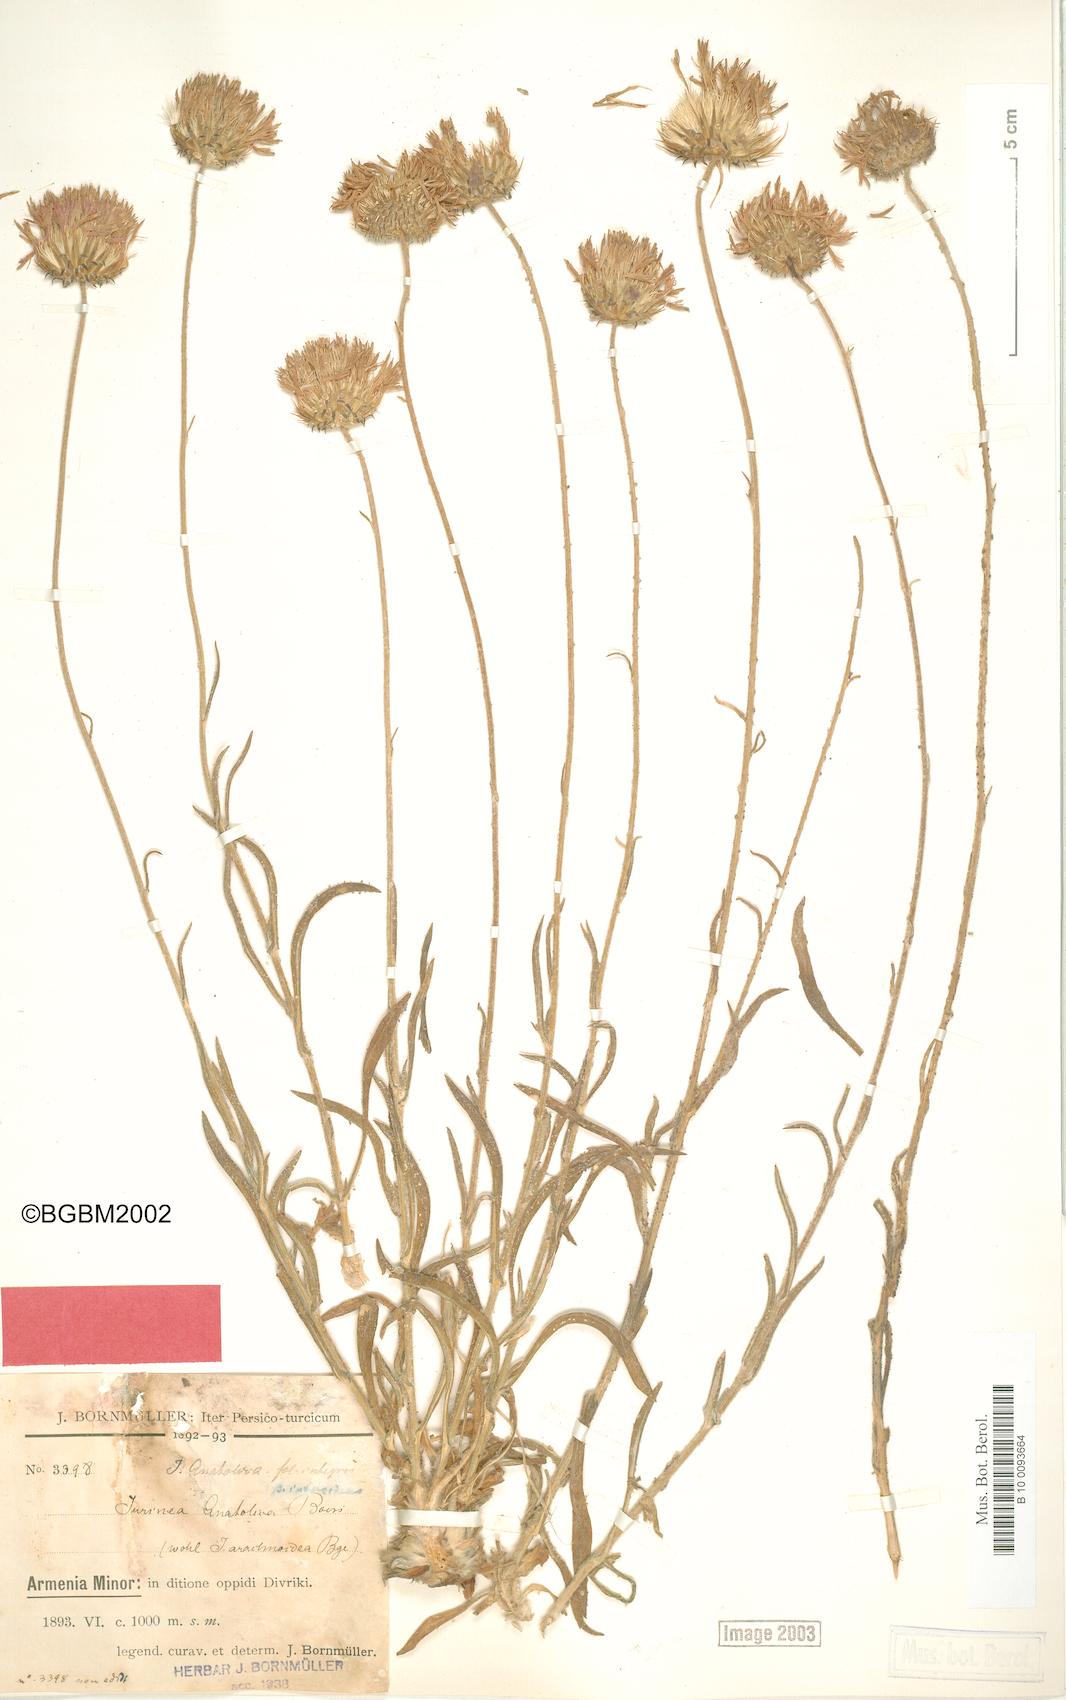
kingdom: Plantae
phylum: Tracheophyta
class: Magnoliopsida
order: Asterales
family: Asteraceae
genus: Jurinea
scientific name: Jurinea pontica
